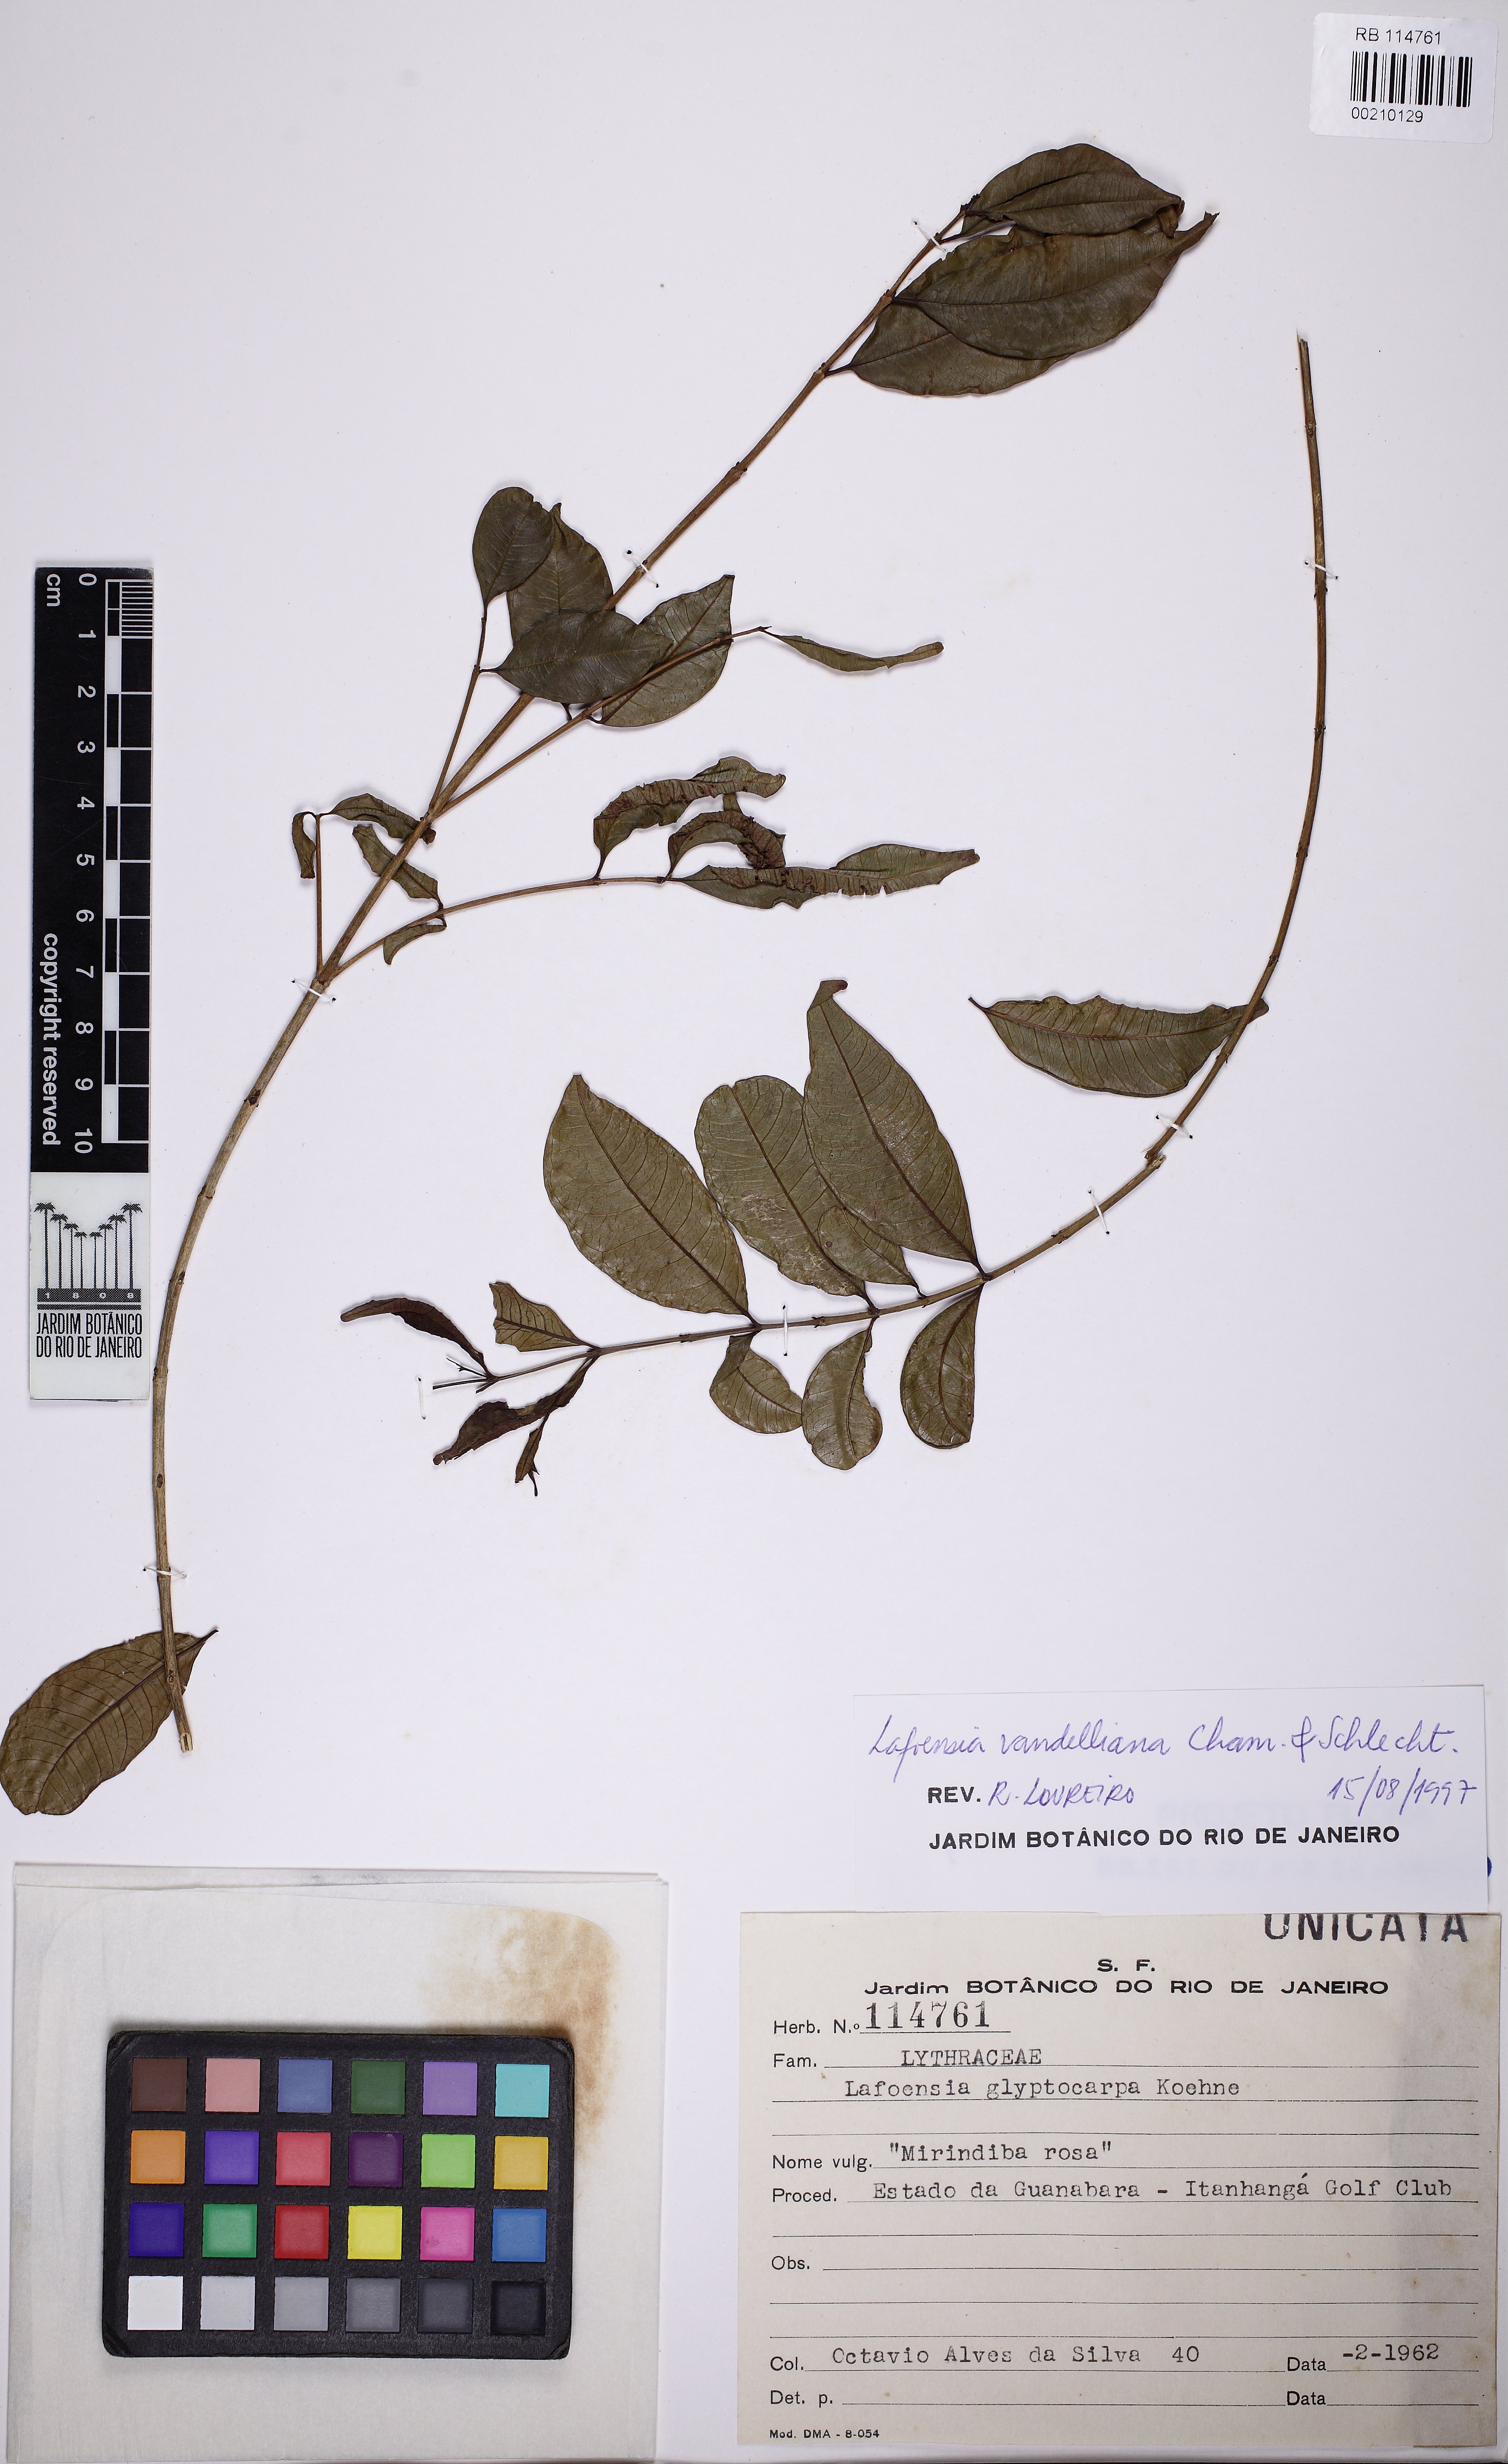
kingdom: Plantae
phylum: Tracheophyta
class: Magnoliopsida
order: Myrtales
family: Lythraceae
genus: Lafoensia
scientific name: Lafoensia vandelliana
